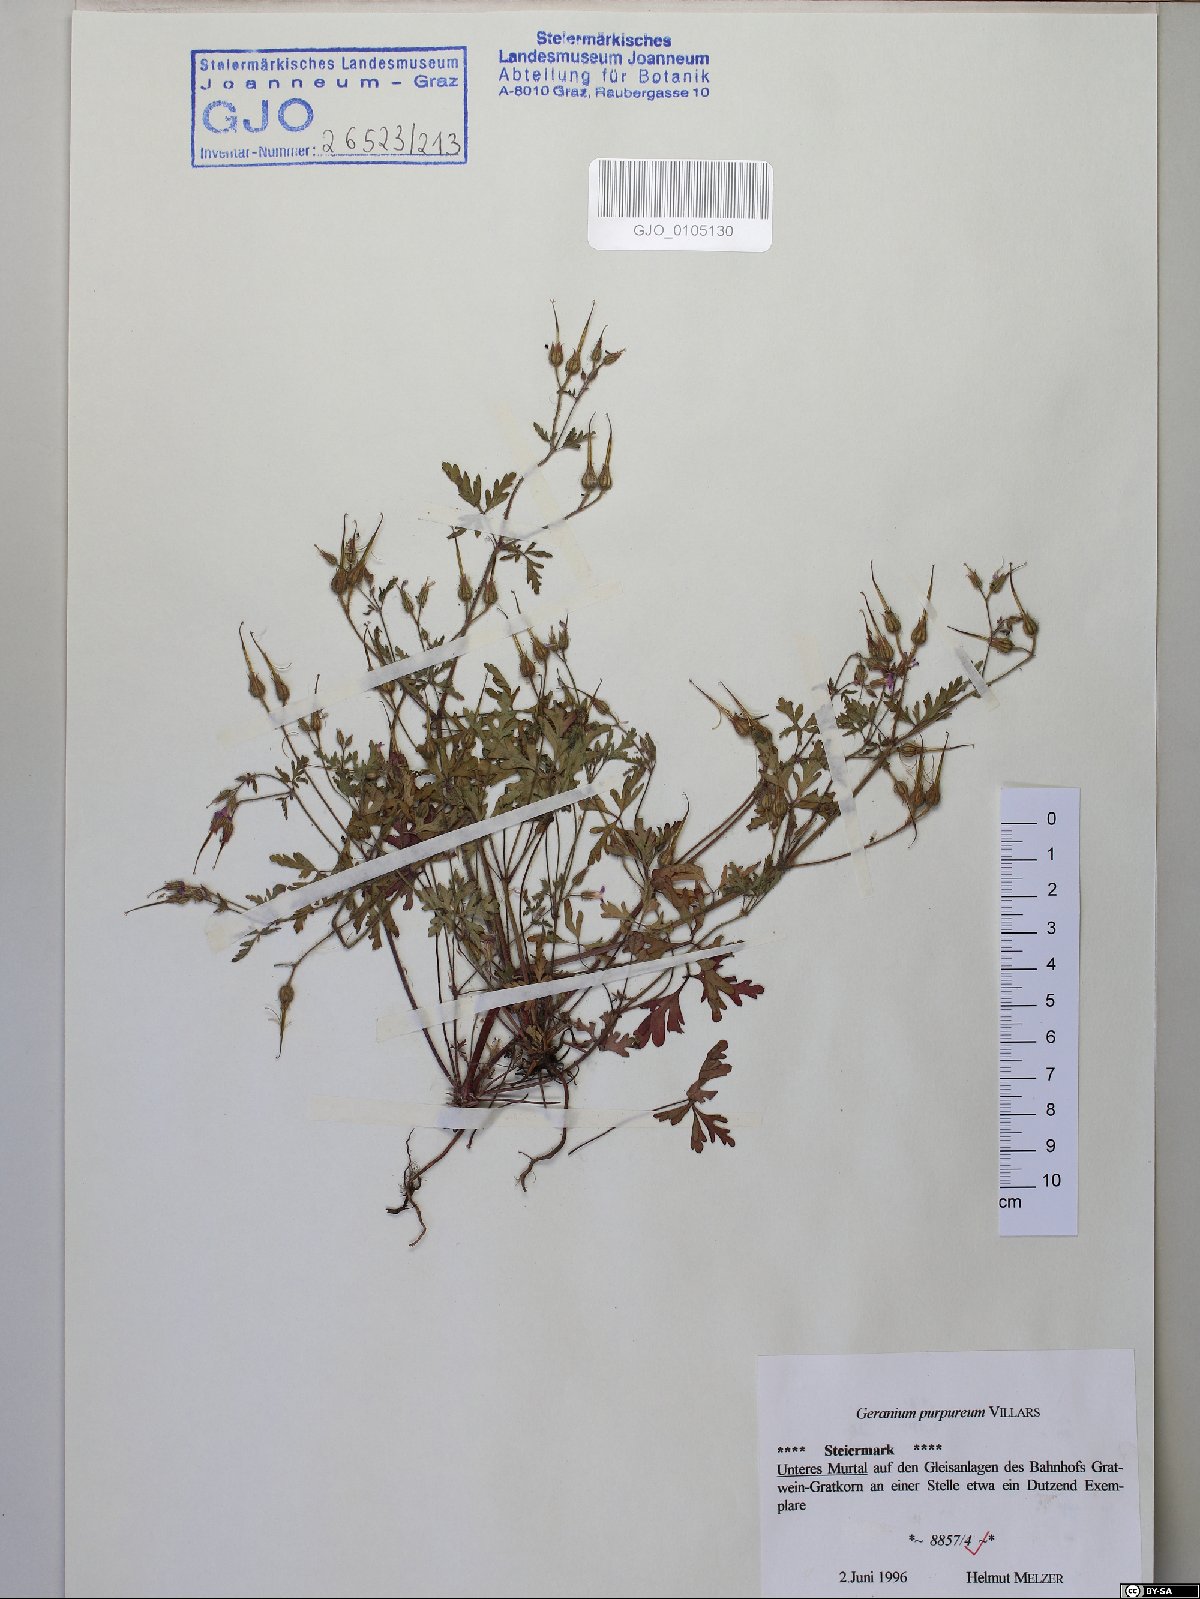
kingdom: Plantae
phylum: Tracheophyta
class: Magnoliopsida
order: Geraniales
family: Geraniaceae
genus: Geranium
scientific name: Geranium purpureum
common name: Little-robin
